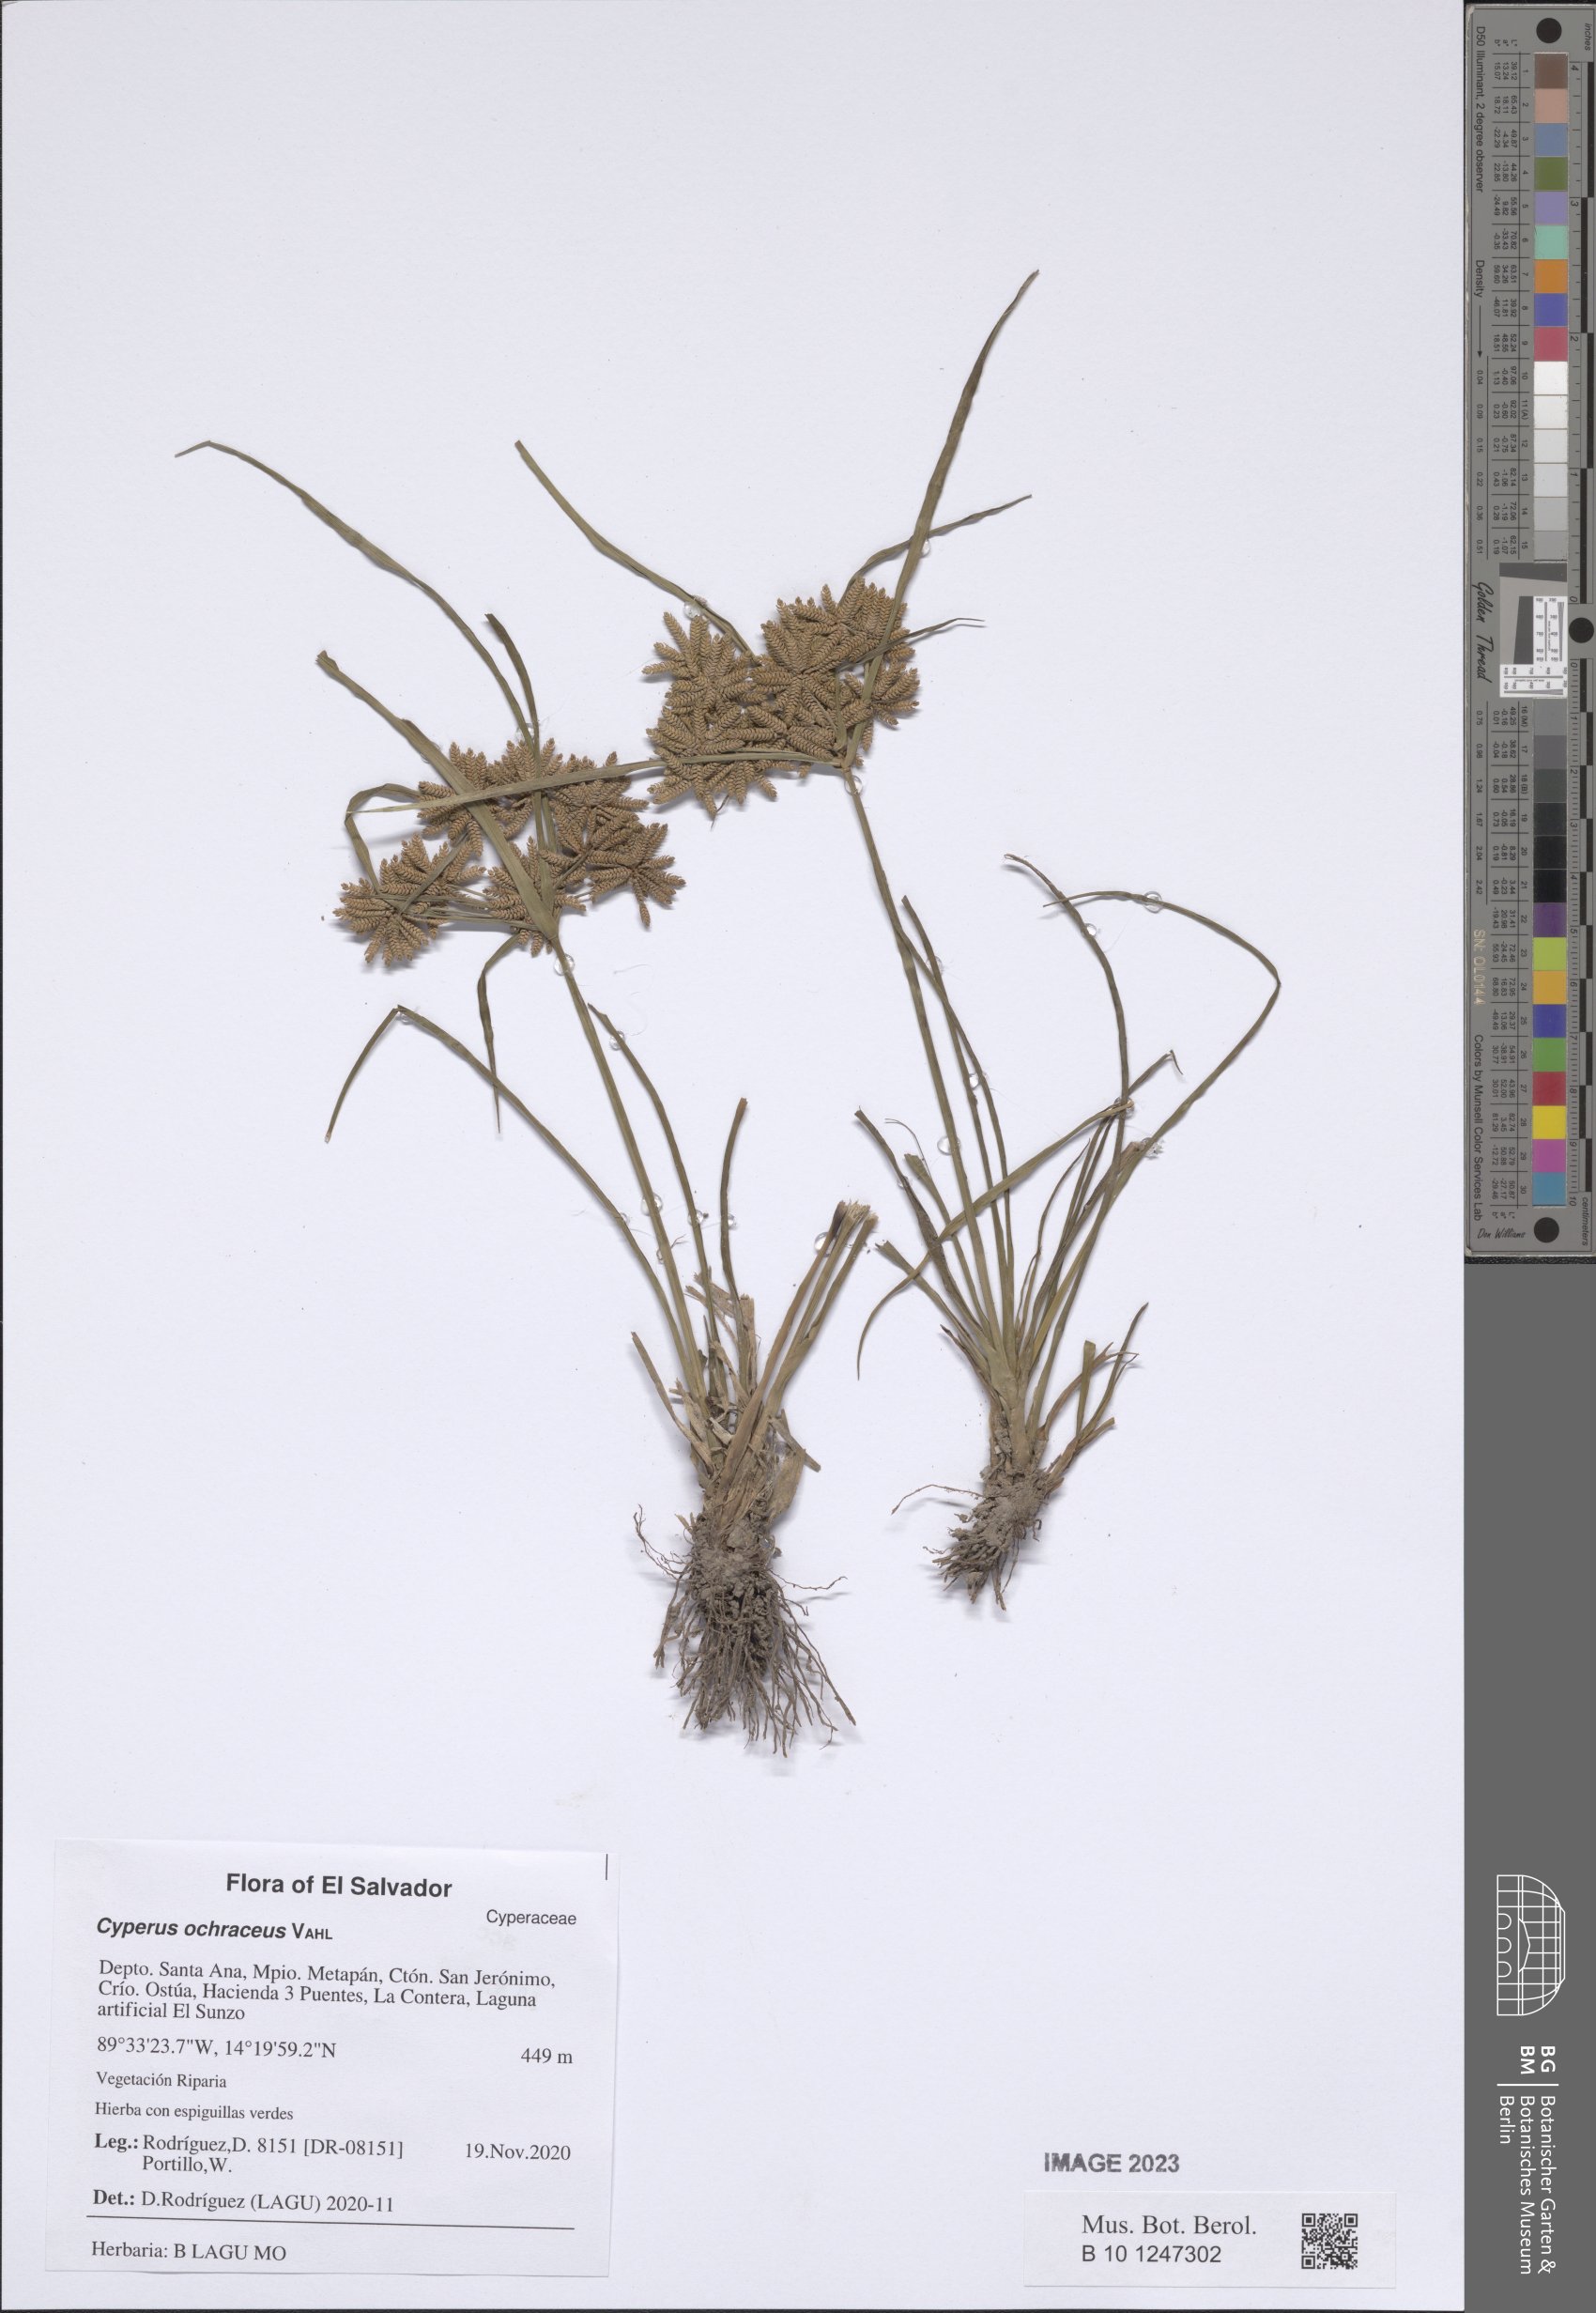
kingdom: Plantae
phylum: Tracheophyta
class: Liliopsida
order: Poales
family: Cyperaceae
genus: Cyperus
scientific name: Cyperus ochraceus
